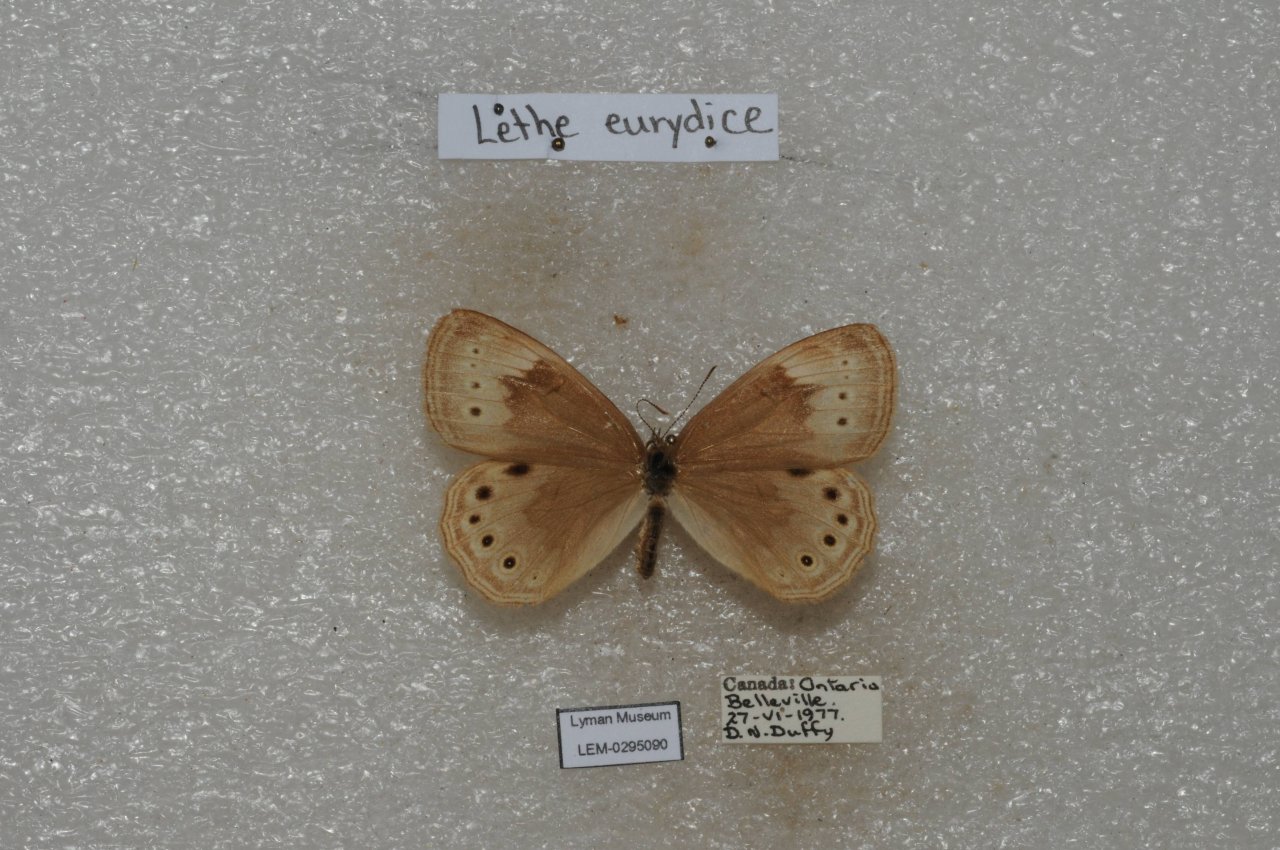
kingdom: Animalia
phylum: Arthropoda
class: Insecta
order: Lepidoptera
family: Nymphalidae
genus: Lethe
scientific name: Lethe eurydice
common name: Eyed Brown
